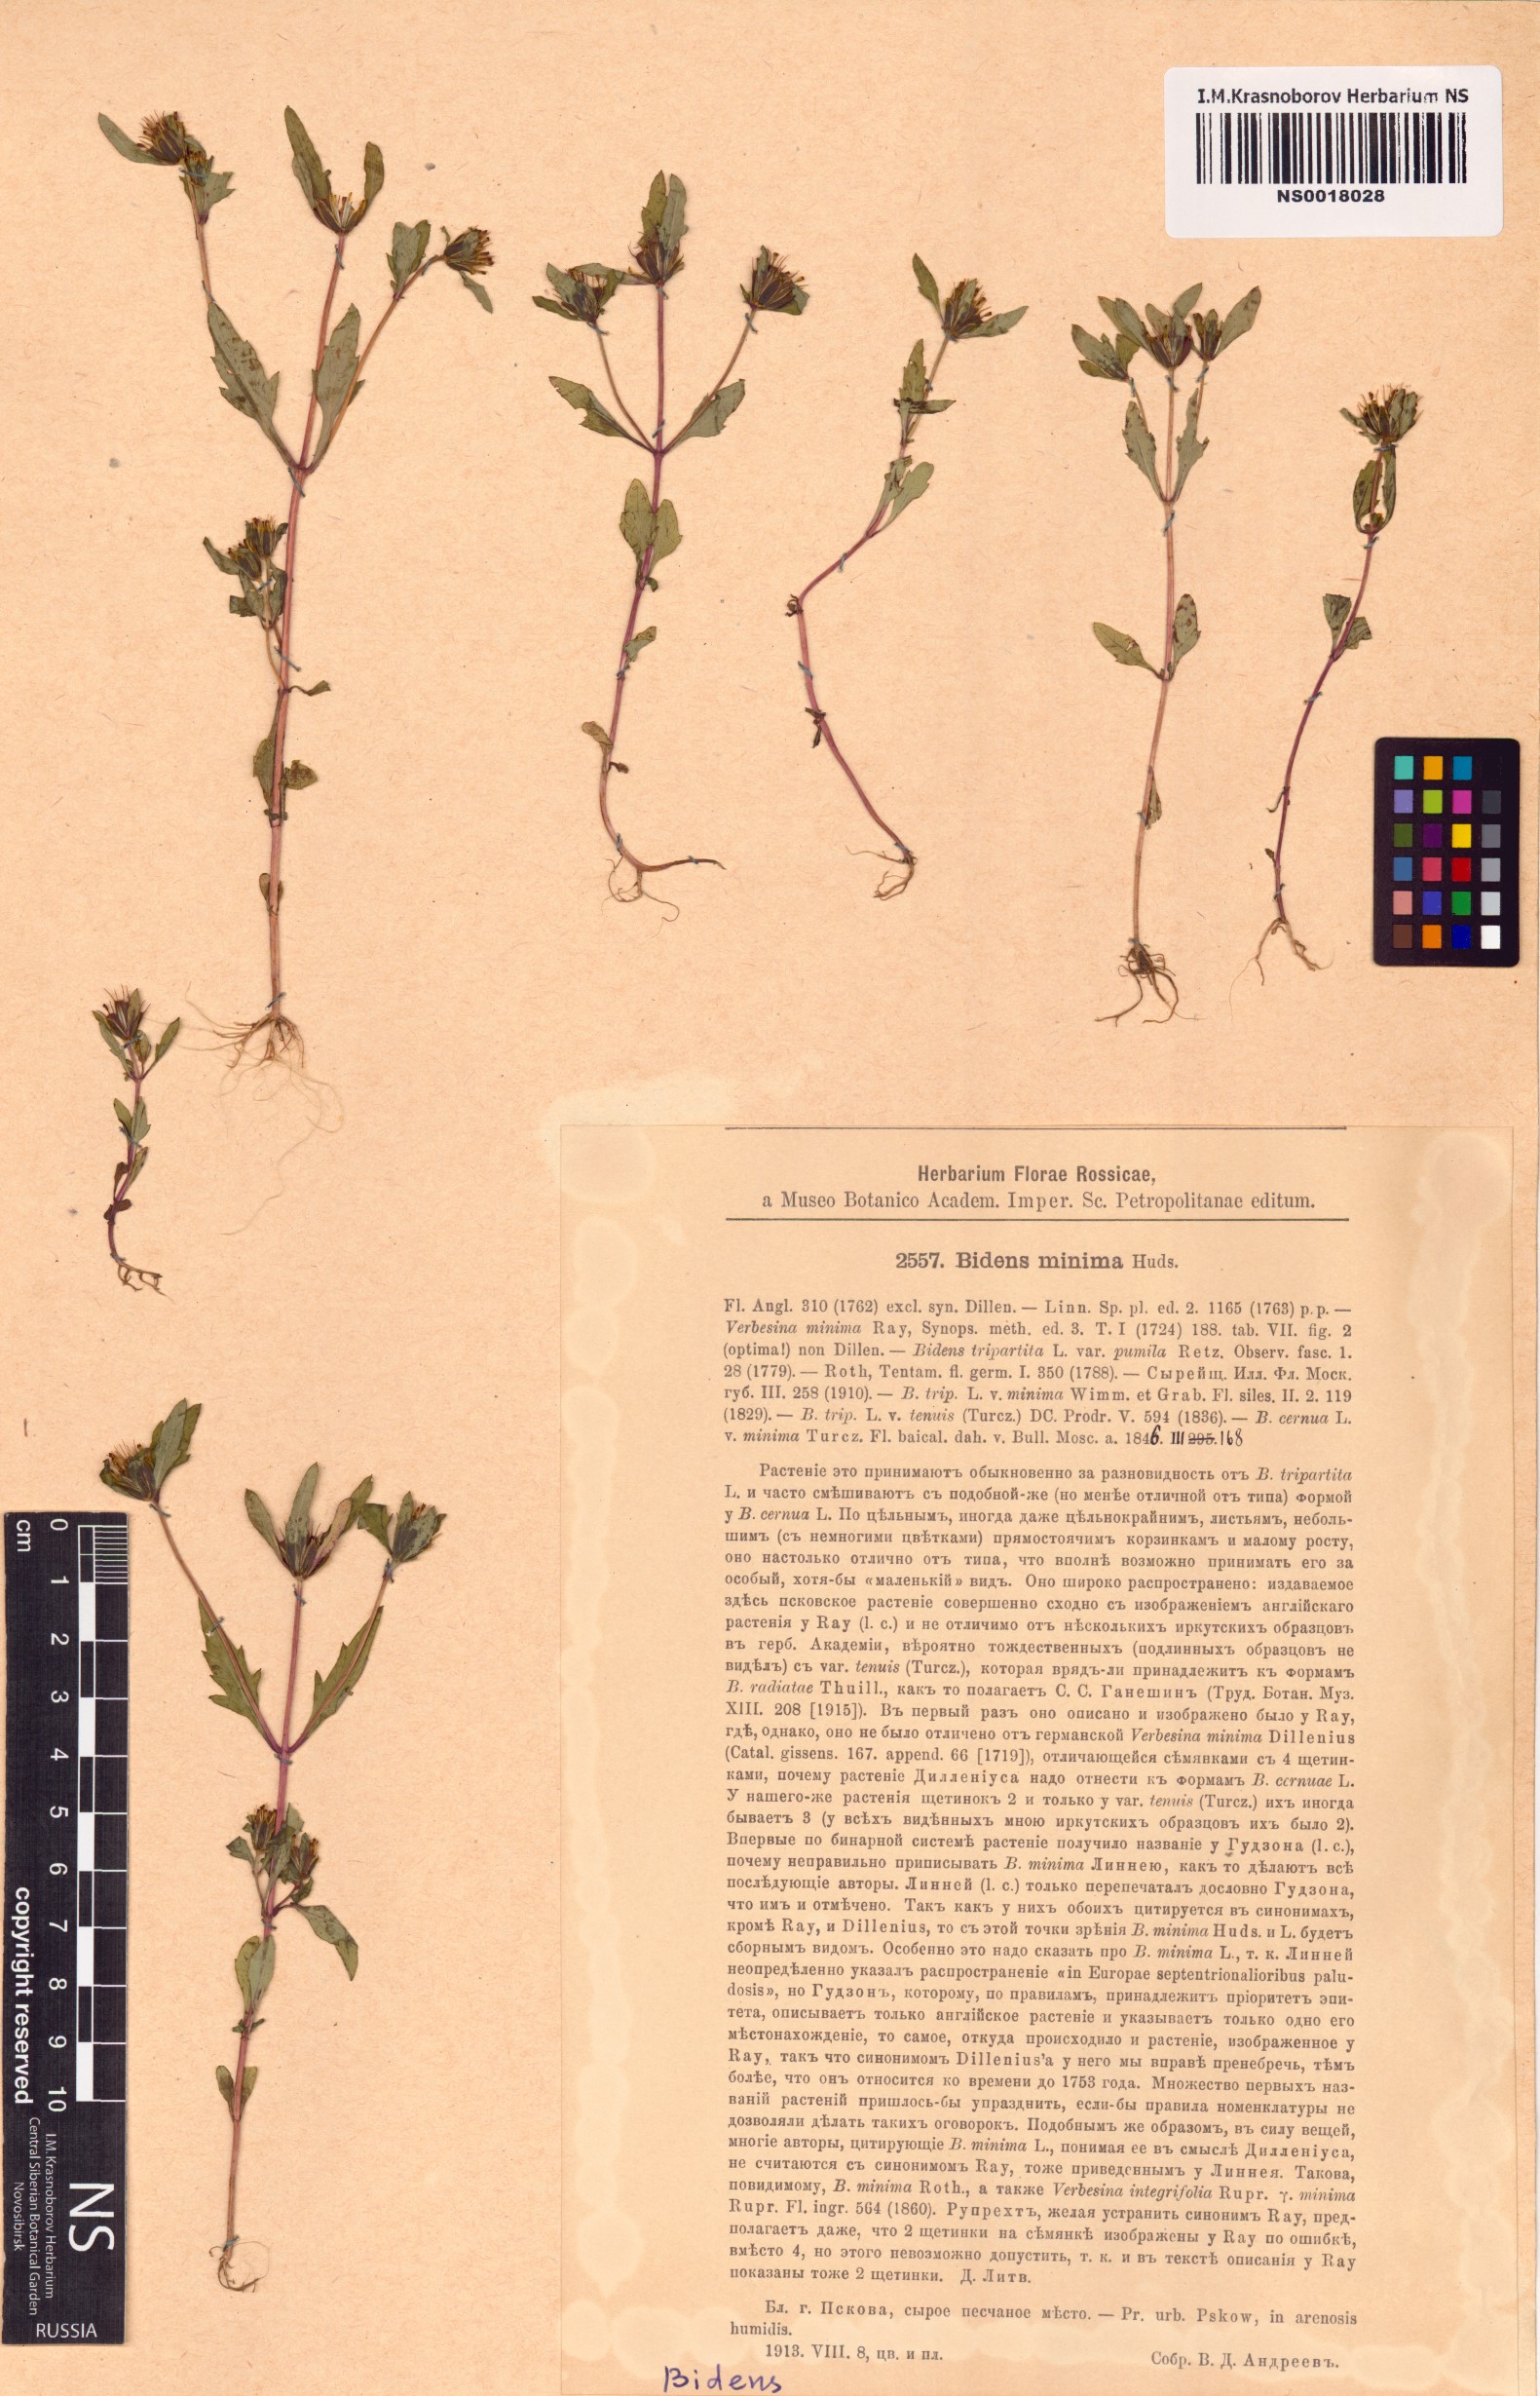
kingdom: Plantae
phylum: Tracheophyta
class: Magnoliopsida
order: Asterales
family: Asteraceae
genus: Bidens
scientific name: Bidens cernua
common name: Nodding bur-marigold
